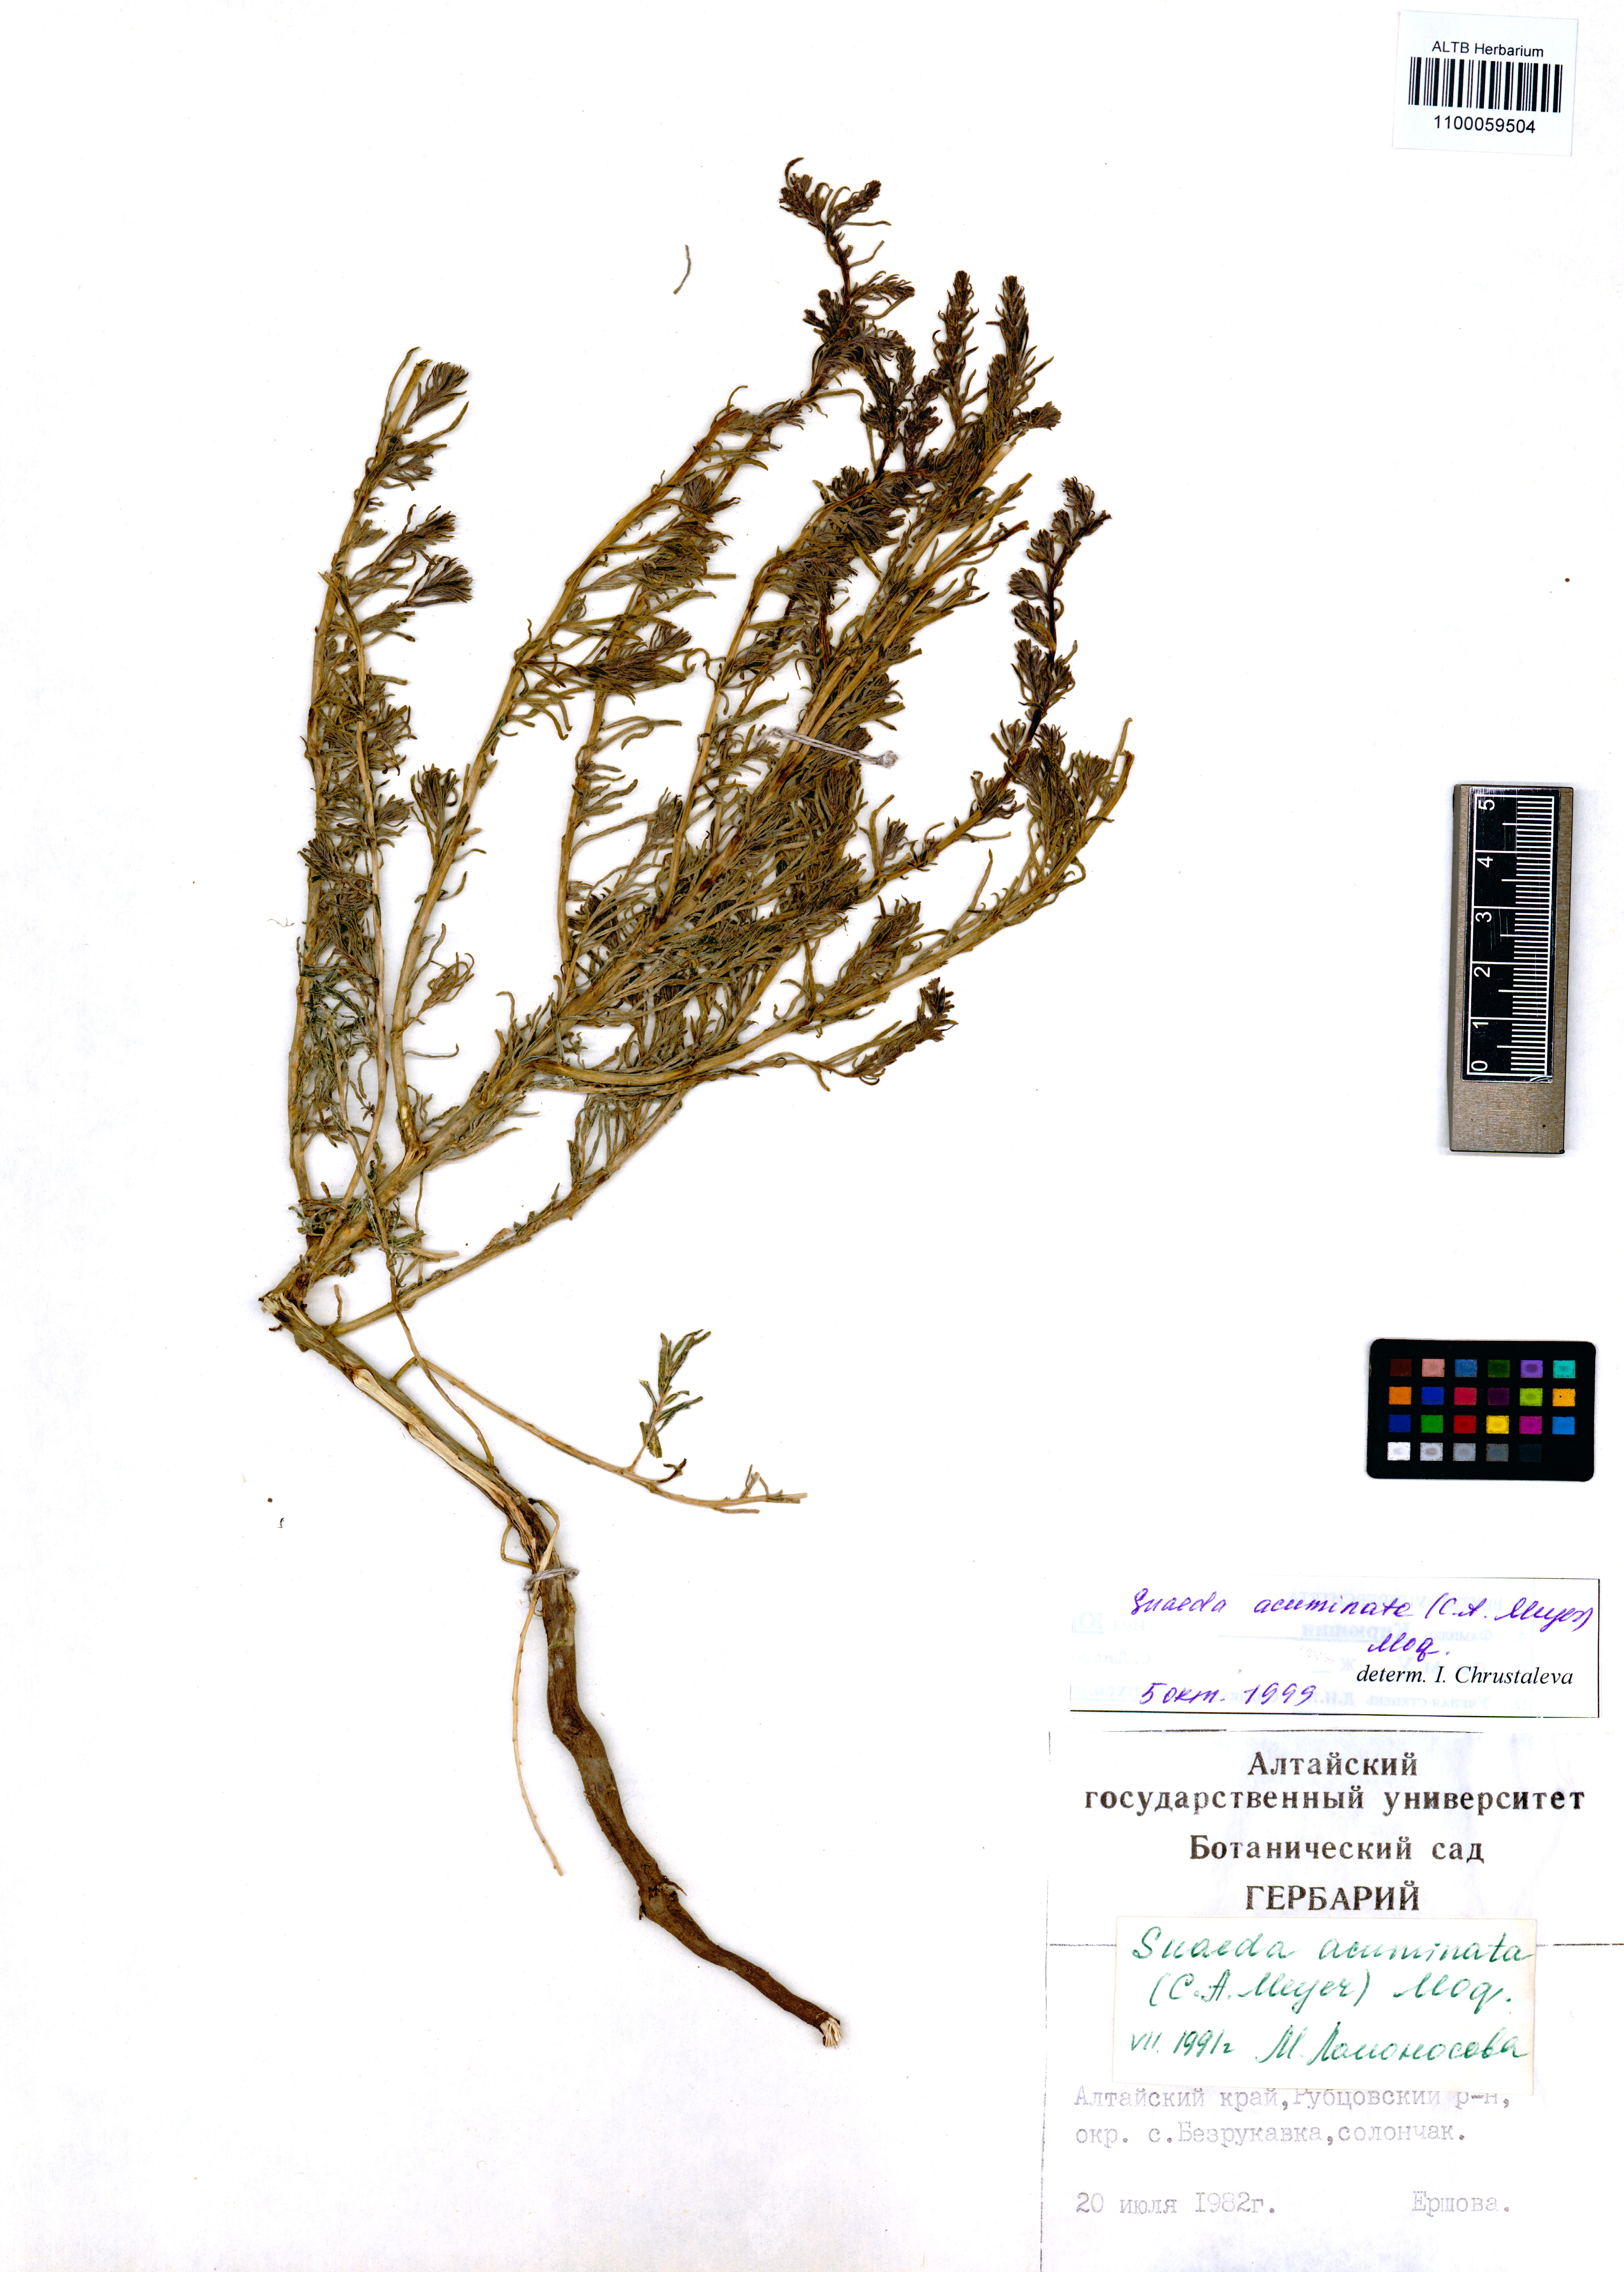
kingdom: Plantae
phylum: Tracheophyta
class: Magnoliopsida
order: Caryophyllales
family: Amaranthaceae
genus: Suaeda
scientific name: Suaeda acuminata
